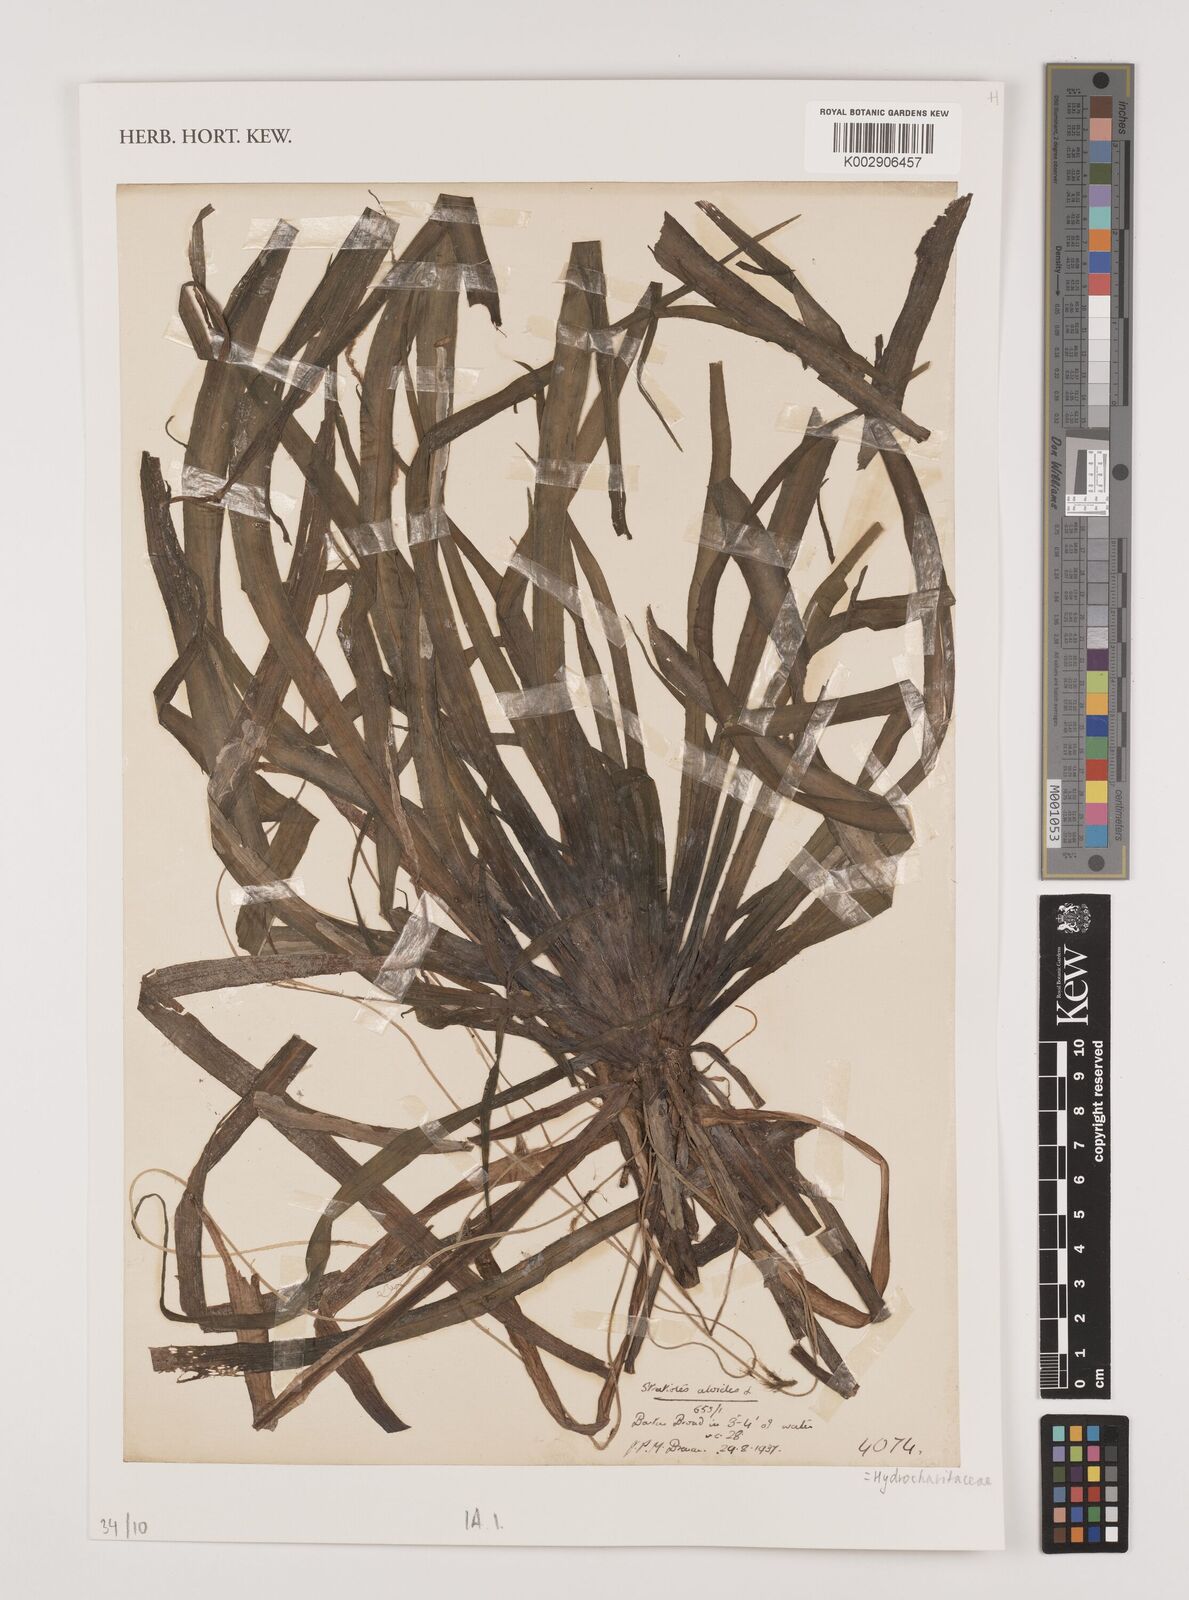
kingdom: Plantae
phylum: Tracheophyta
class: Liliopsida
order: Alismatales
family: Hydrocharitaceae
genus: Stratiotes
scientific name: Stratiotes aloides
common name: Water-soldier
